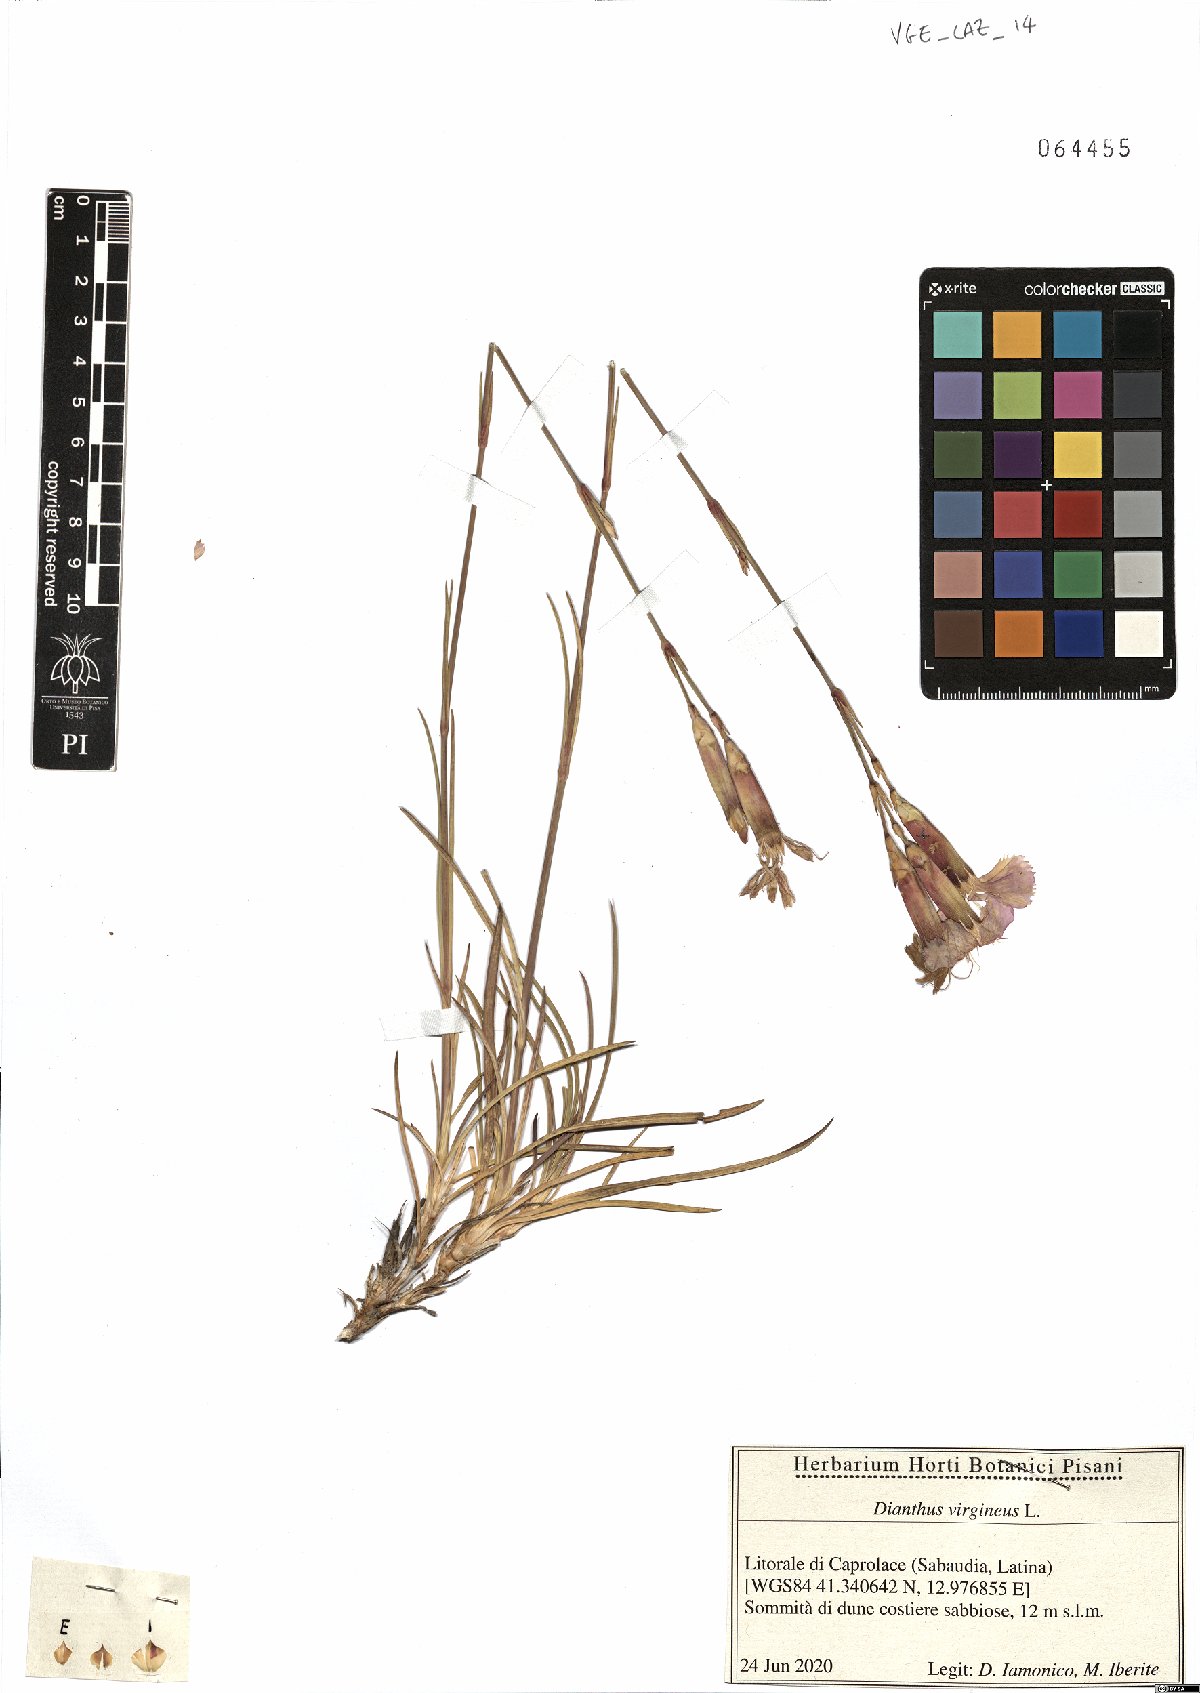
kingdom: Plantae
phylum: Tracheophyta
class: Magnoliopsida
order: Caryophyllales
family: Caryophyllaceae
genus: Dianthus
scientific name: Dianthus virgineus
